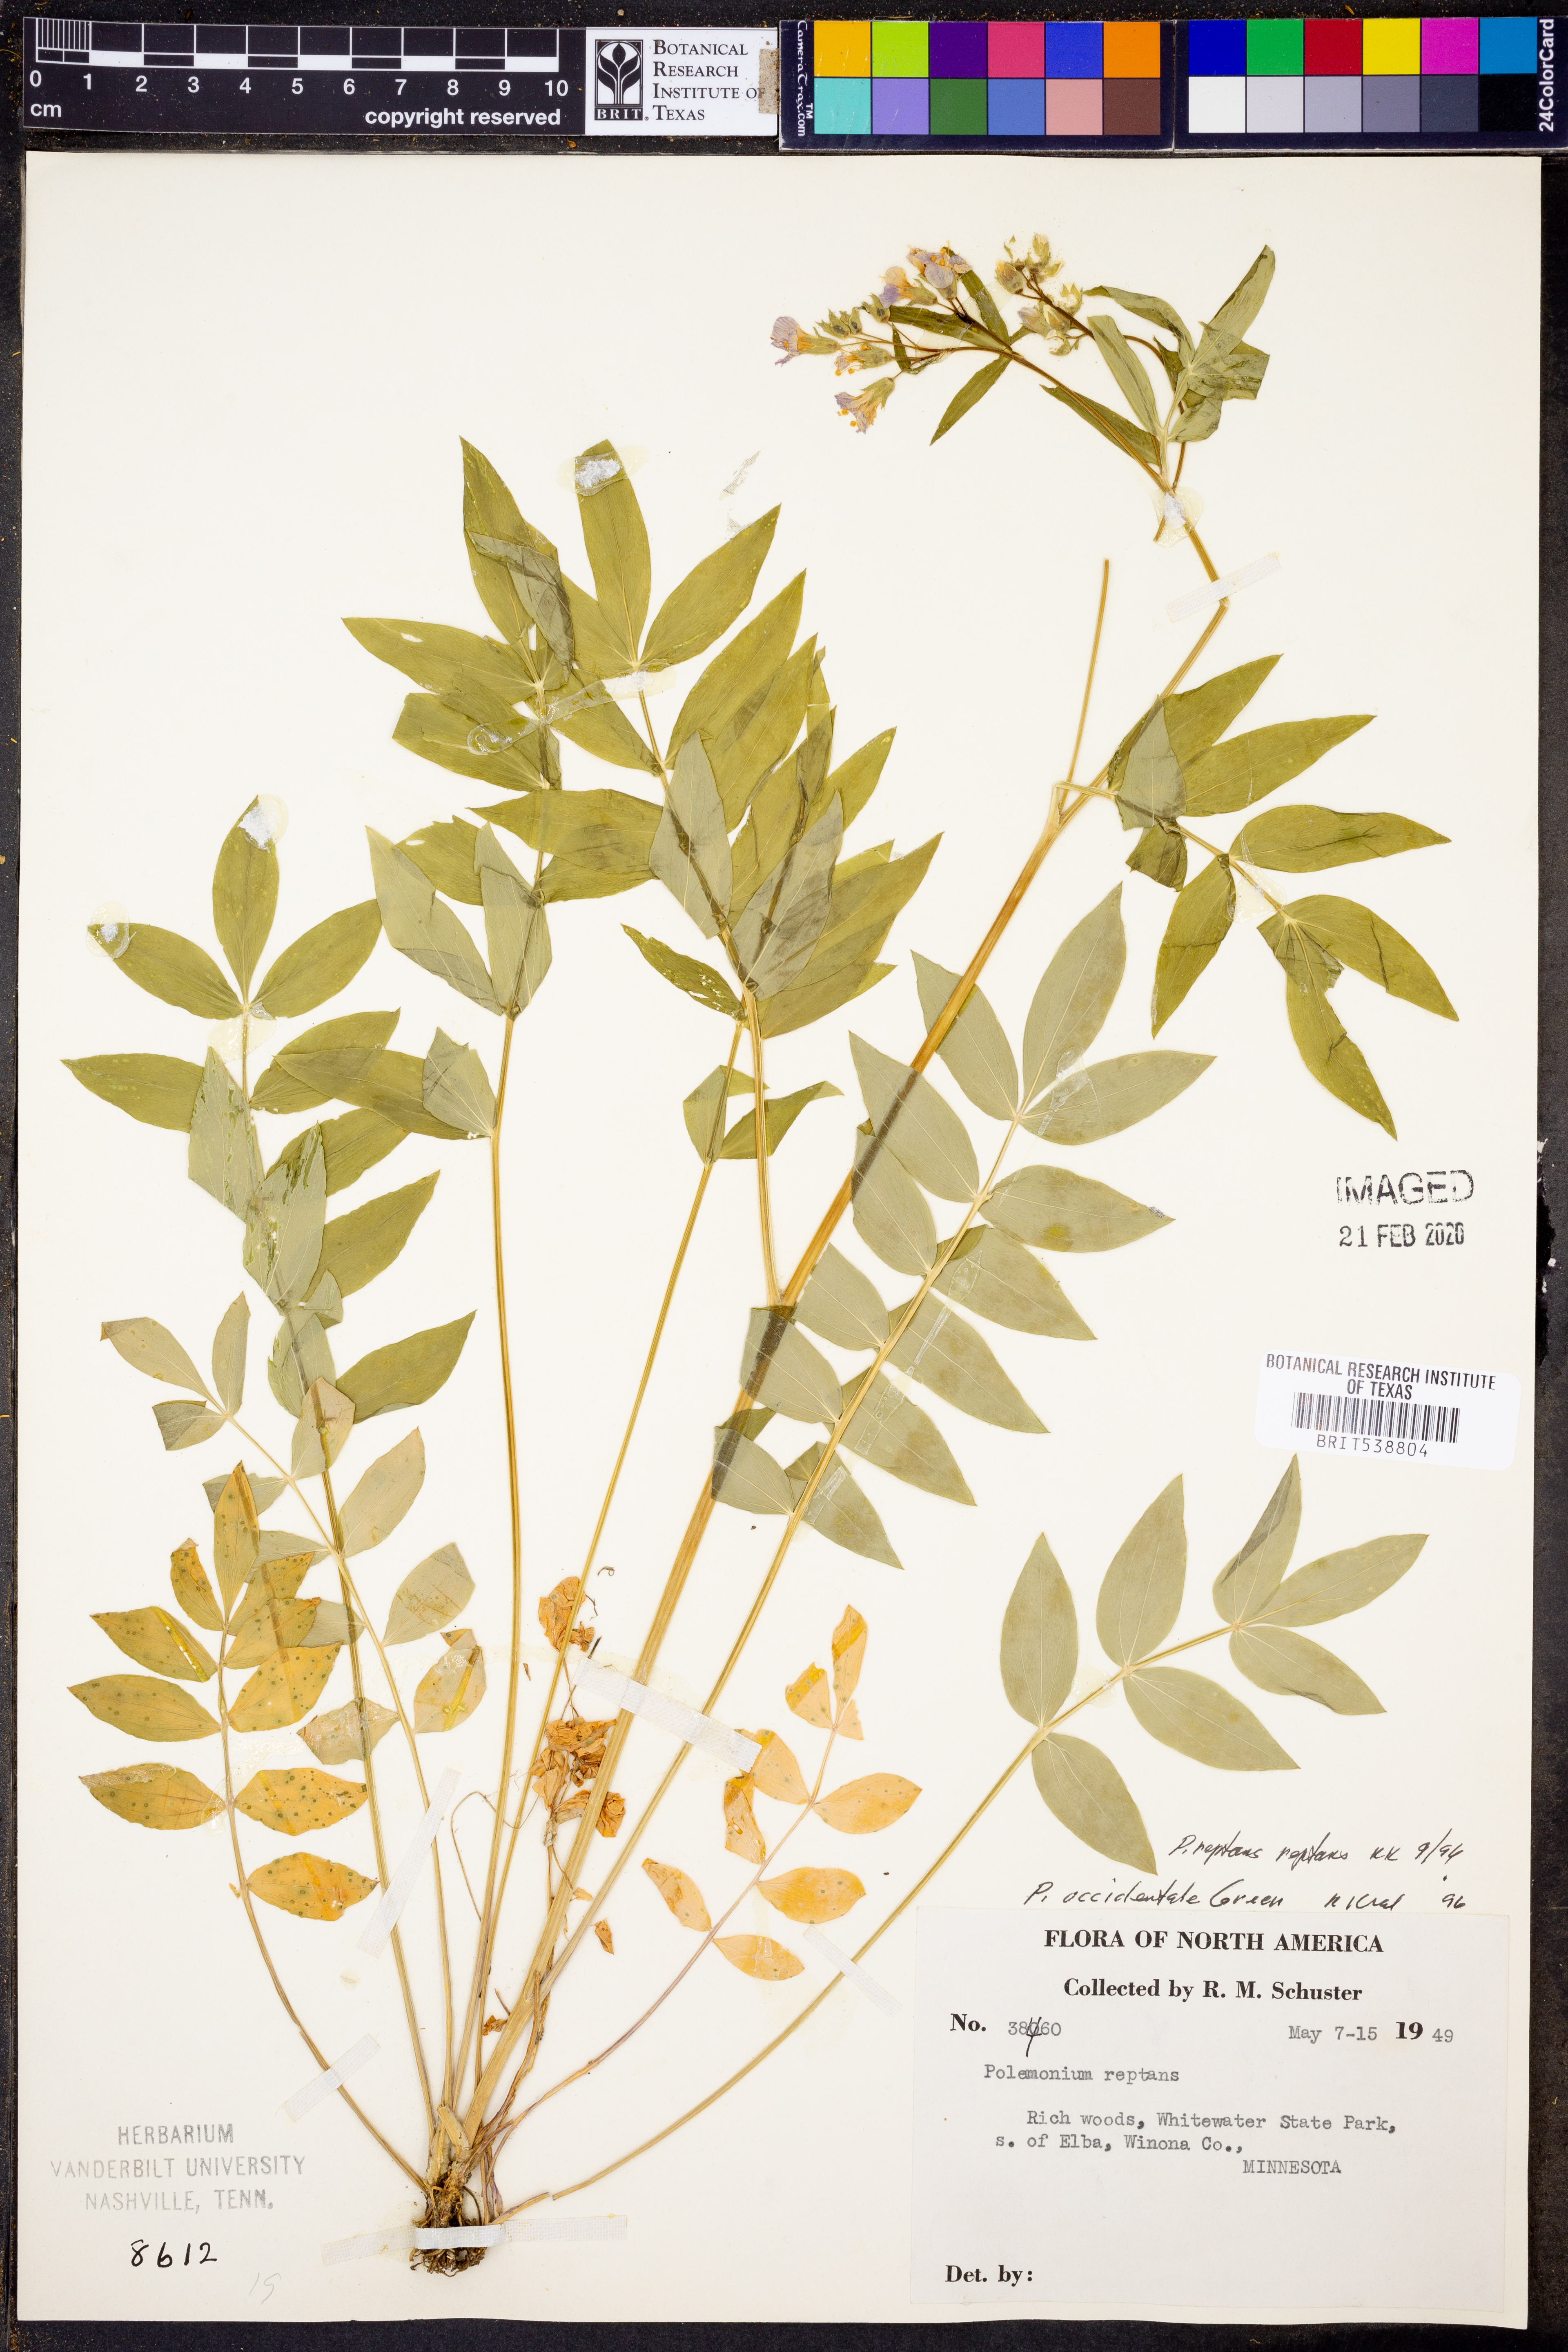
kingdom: Plantae
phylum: Tracheophyta
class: Magnoliopsida
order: Ericales
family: Polemoniaceae
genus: Polemonium
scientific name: Polemonium reptans
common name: Creeping jacob's-ladder
